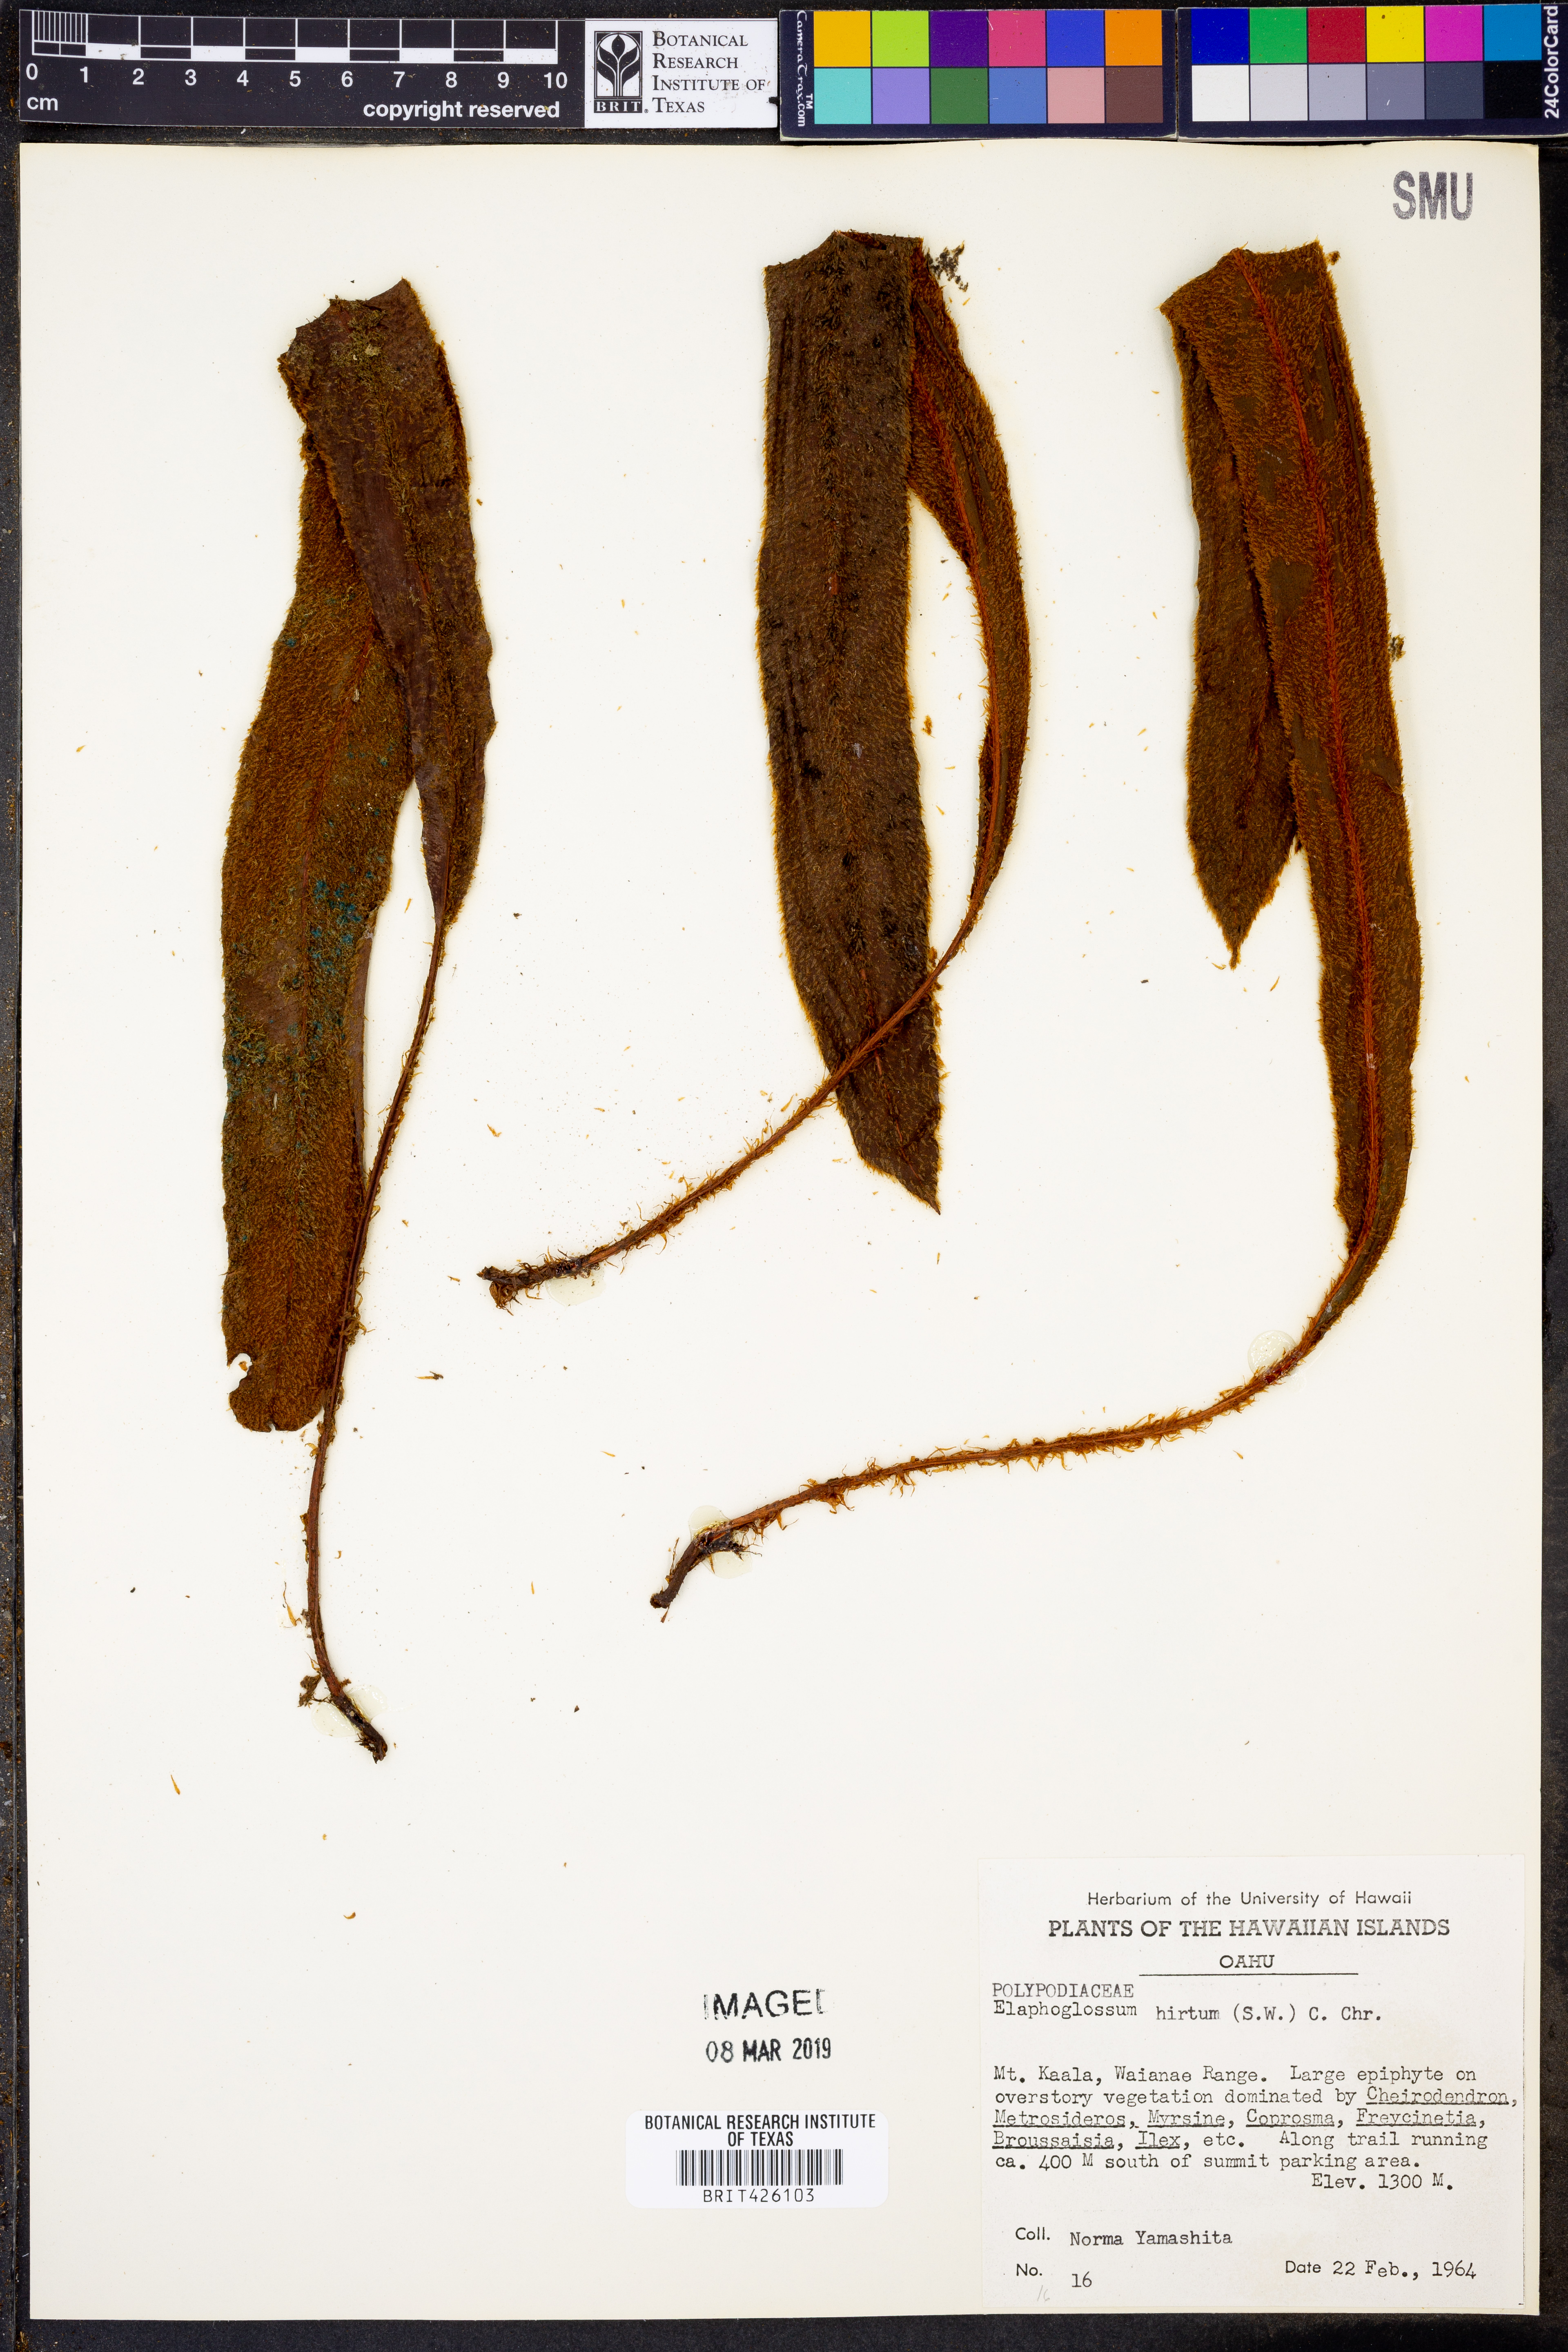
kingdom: Plantae
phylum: Tracheophyta
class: Polypodiopsida
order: Polypodiales
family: Dryopteridaceae
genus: Elaphoglossum
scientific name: Elaphoglossum hirtum
